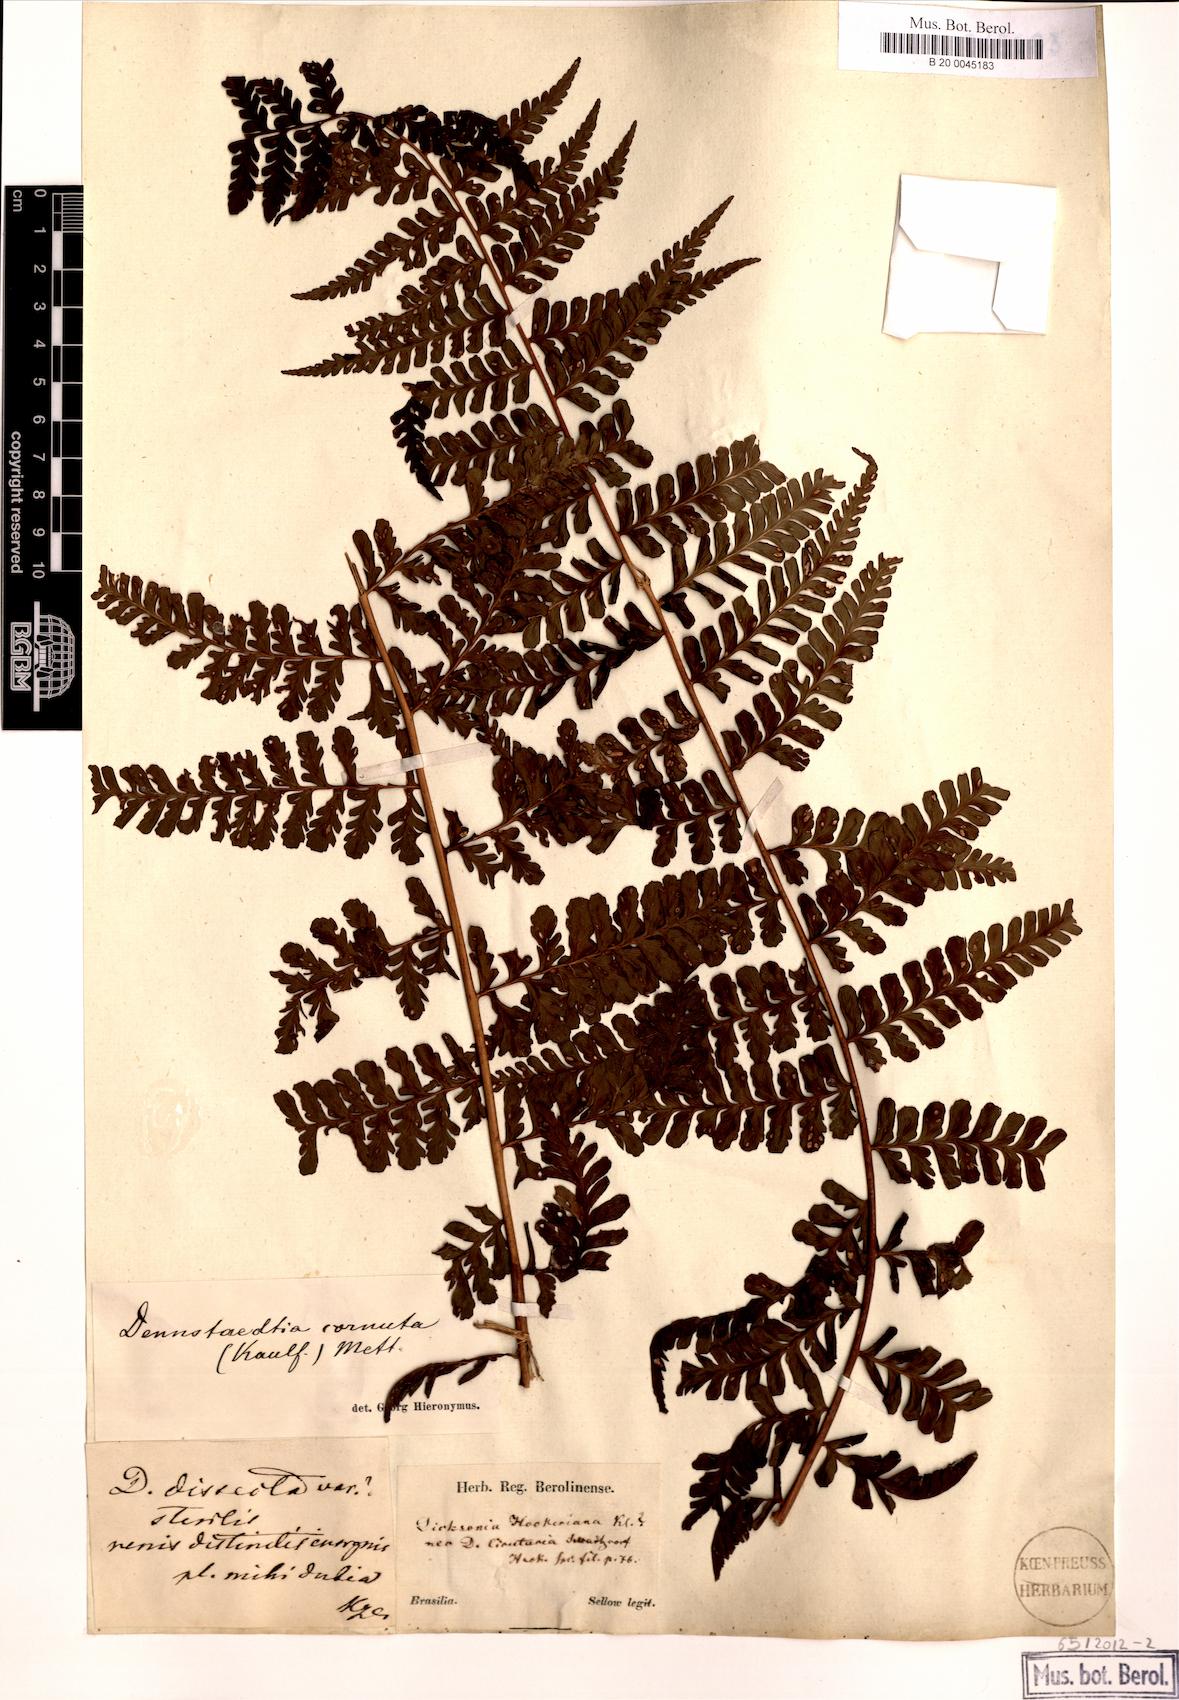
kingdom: Plantae
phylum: Tracheophyta
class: Polypodiopsida
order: Polypodiales
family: Dennstaedtiaceae
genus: Dennstaedtia
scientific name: Dennstaedtia cornuta
